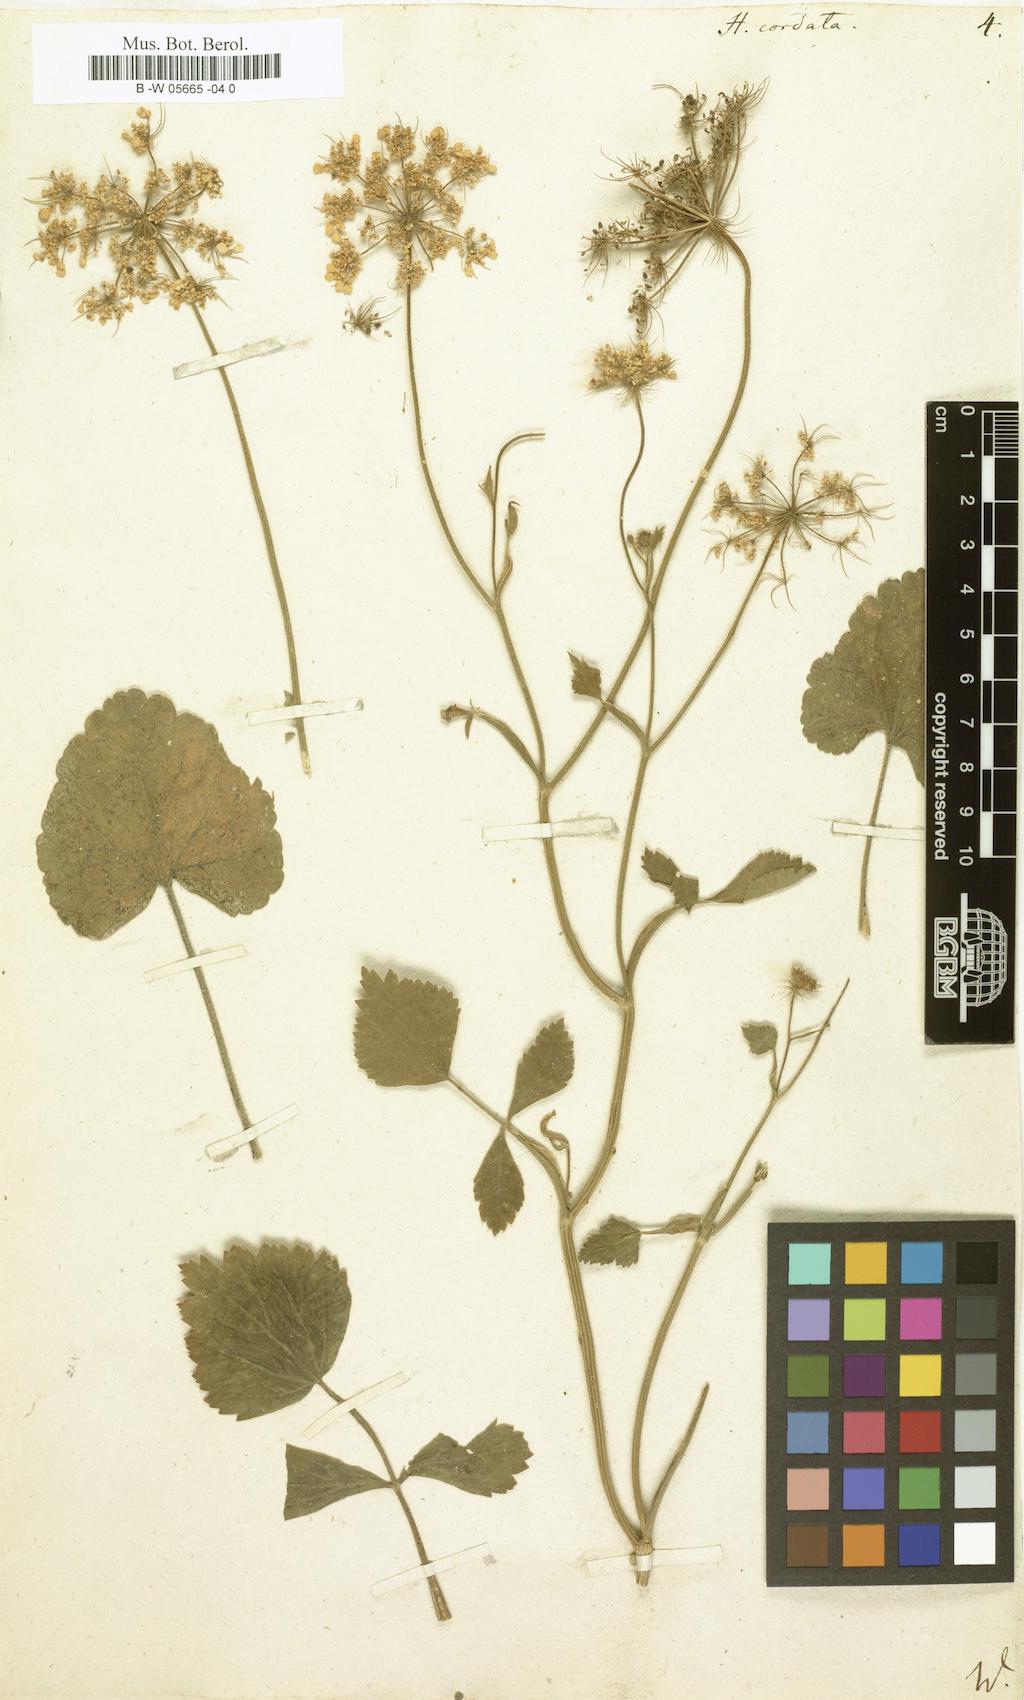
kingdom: Plantae
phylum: Tracheophyta
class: Magnoliopsida
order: Apiales
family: Apiaceae
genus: Ainsworthia
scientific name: Ainsworthia cordata
